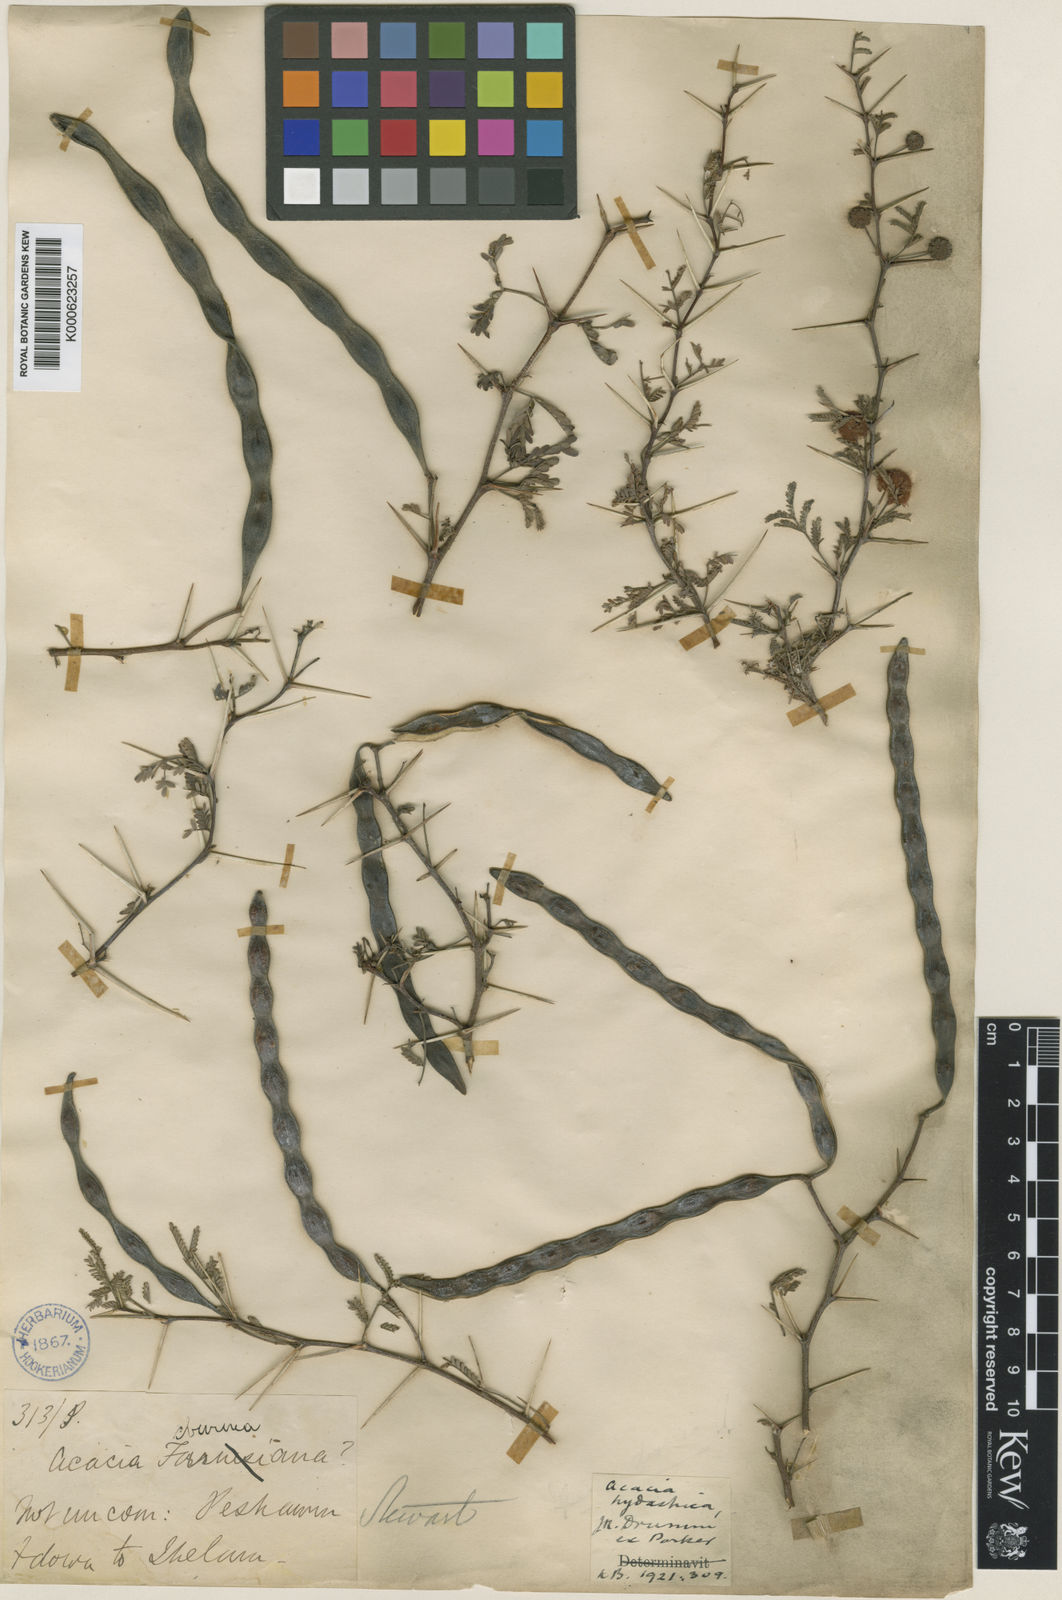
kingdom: Plantae
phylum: Tracheophyta
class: Magnoliopsida
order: Fabales
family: Fabaceae
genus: Vachellia
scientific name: Vachellia hydaspica
